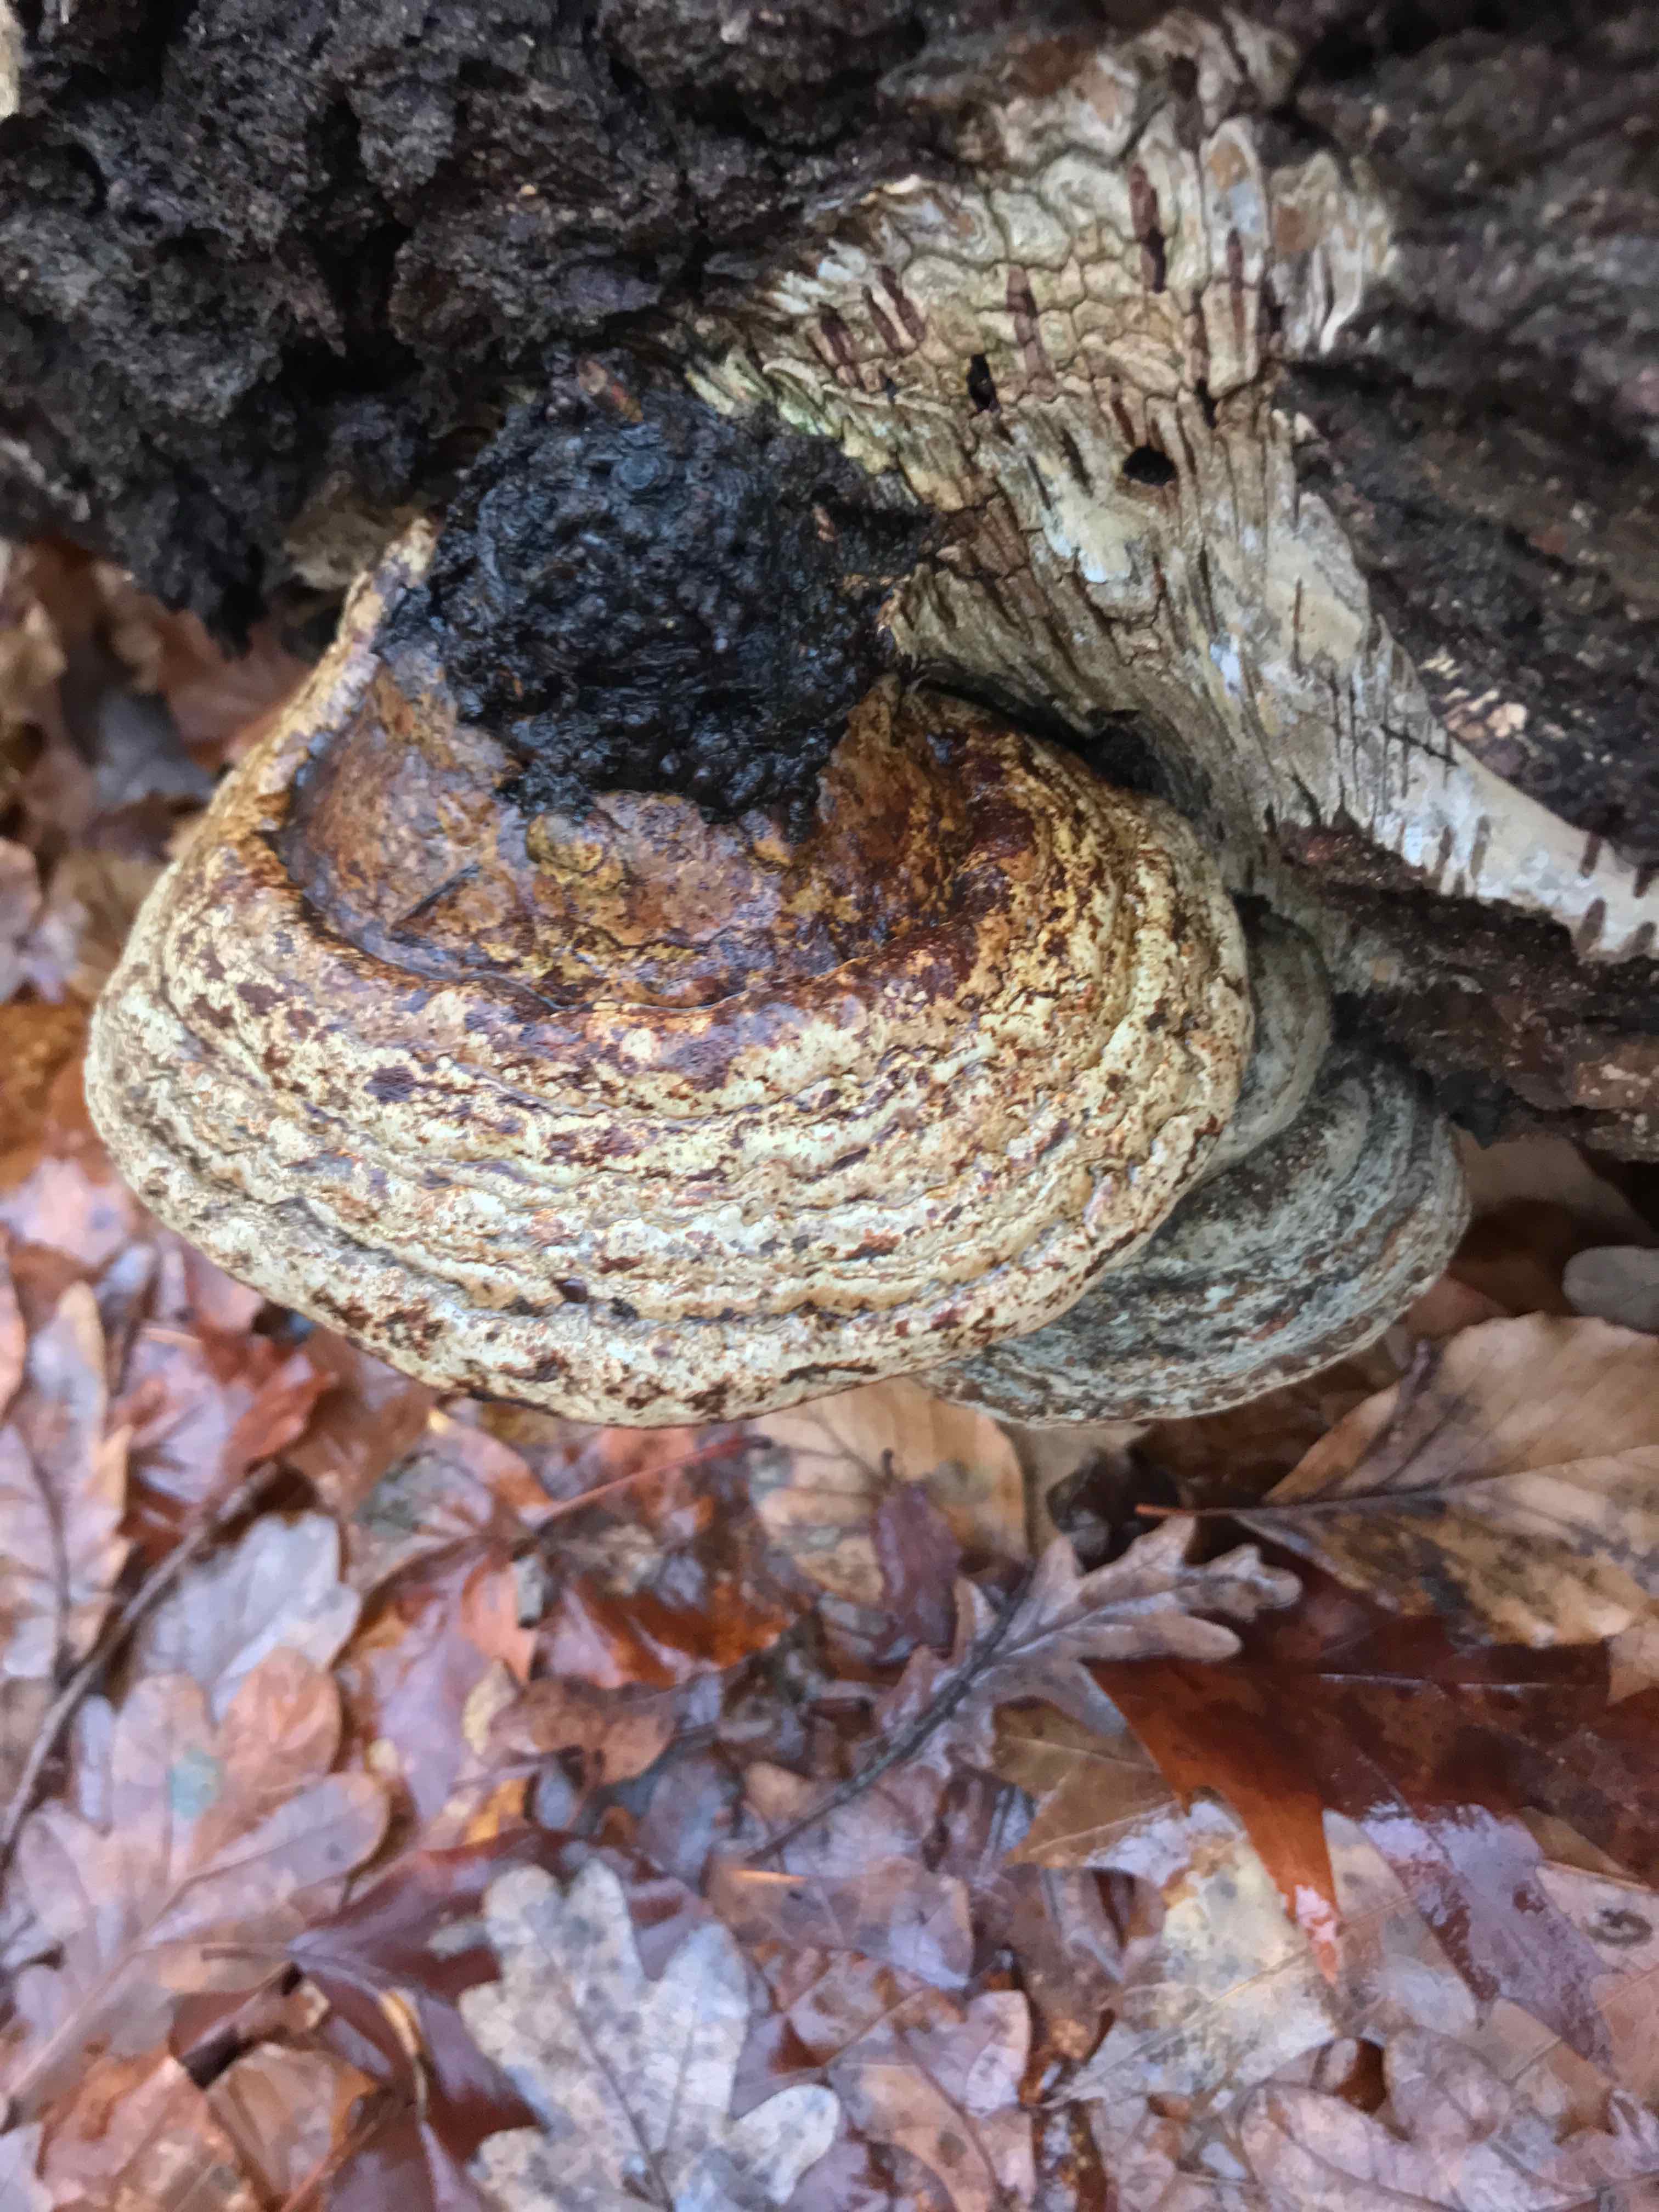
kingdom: Fungi
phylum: Basidiomycota
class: Agaricomycetes
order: Polyporales
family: Polyporaceae
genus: Fomes
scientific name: Fomes fomentarius
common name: tøndersvamp
